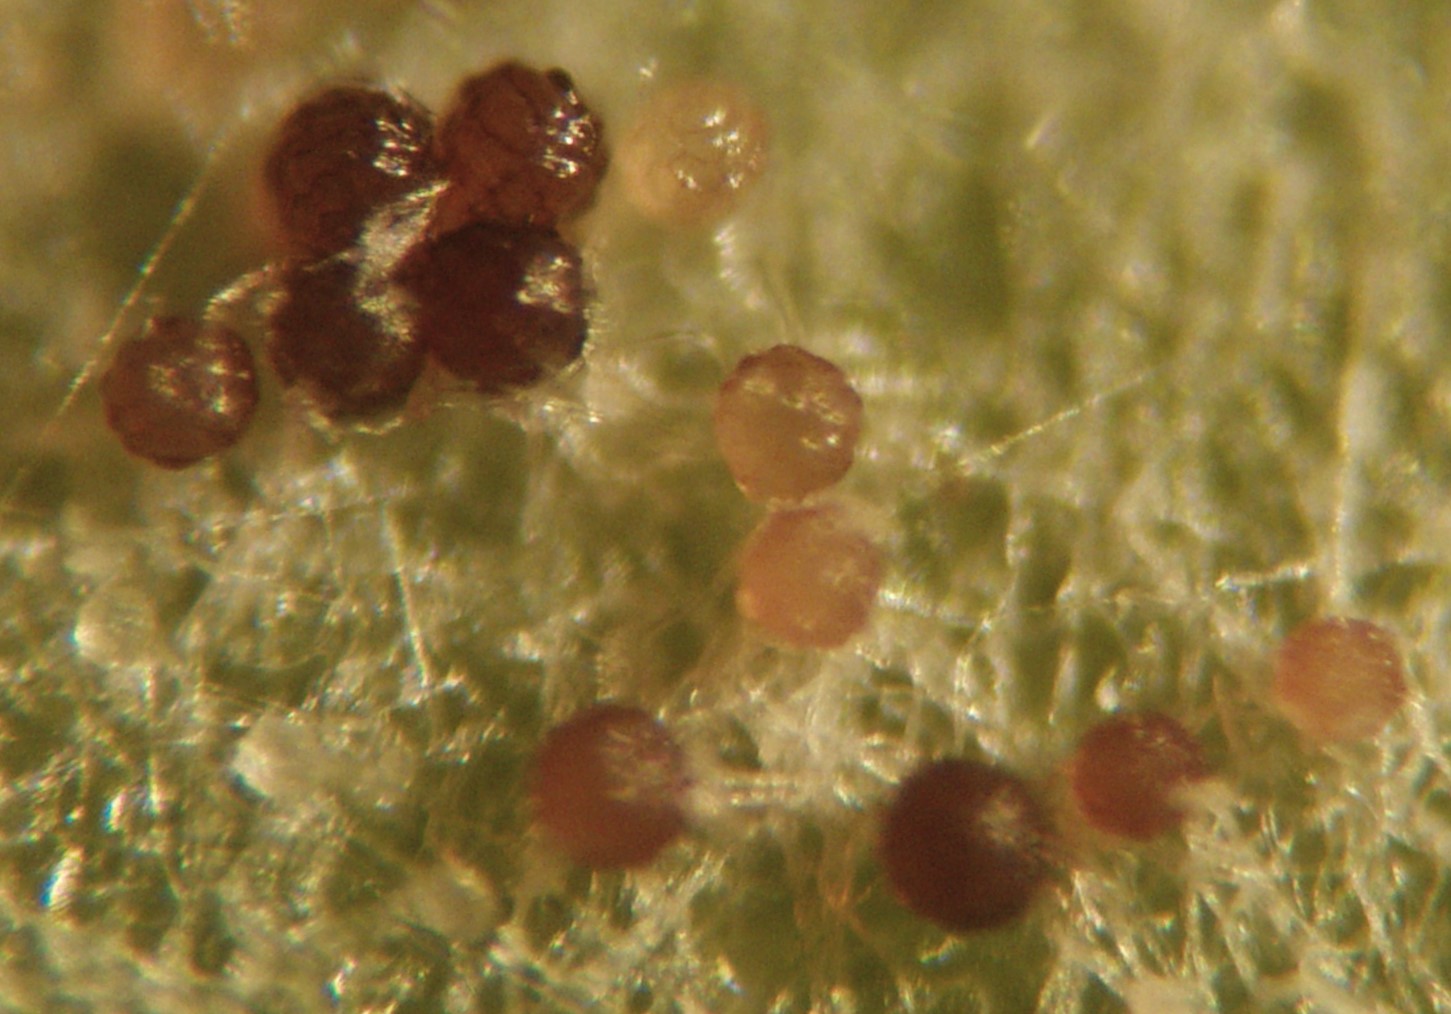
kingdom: Fungi
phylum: Ascomycota
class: Leotiomycetes
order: Helotiales
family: Erysiphaceae
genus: Podosphaera
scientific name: Podosphaera plantaginis
